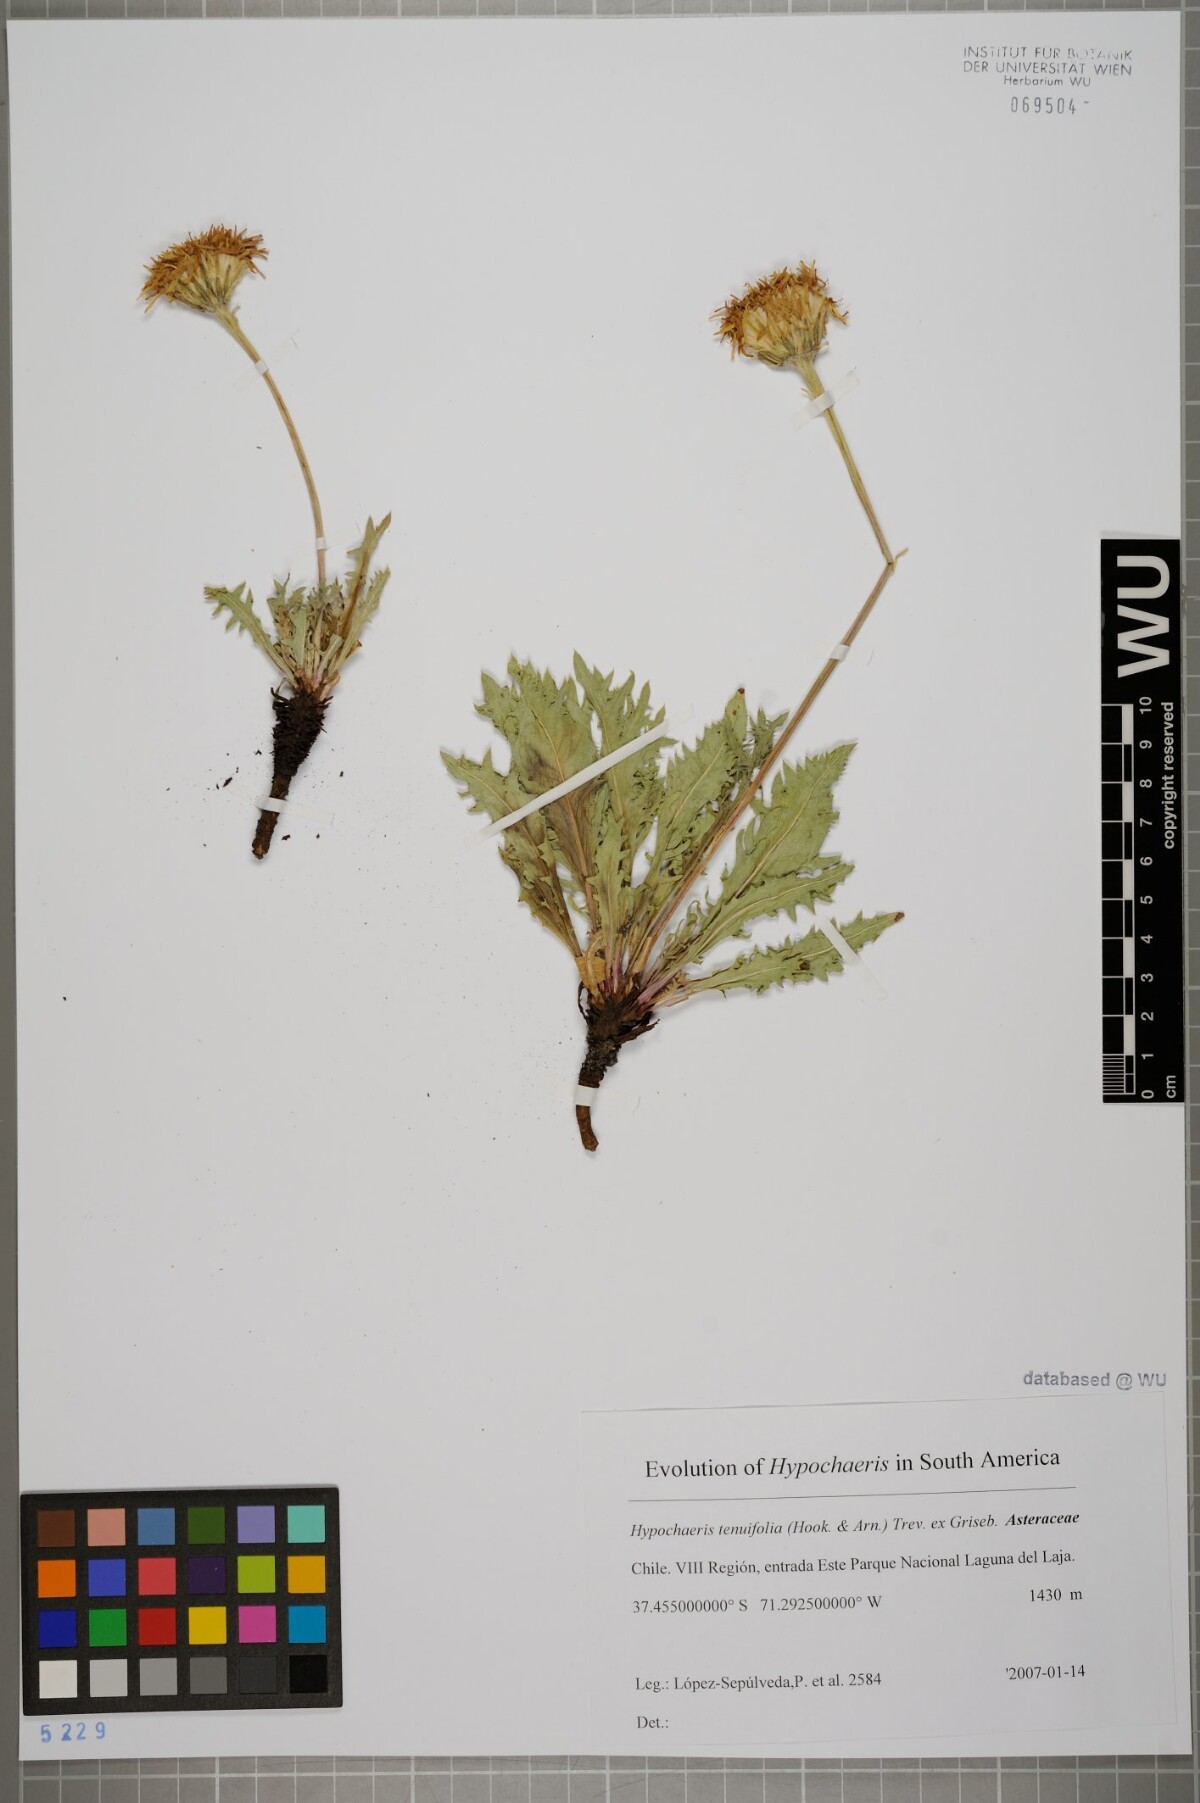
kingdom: Plantae
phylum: Tracheophyta
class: Magnoliopsida
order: Asterales
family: Asteraceae
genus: Hypochaeris
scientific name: Hypochaeris tenuifolia
